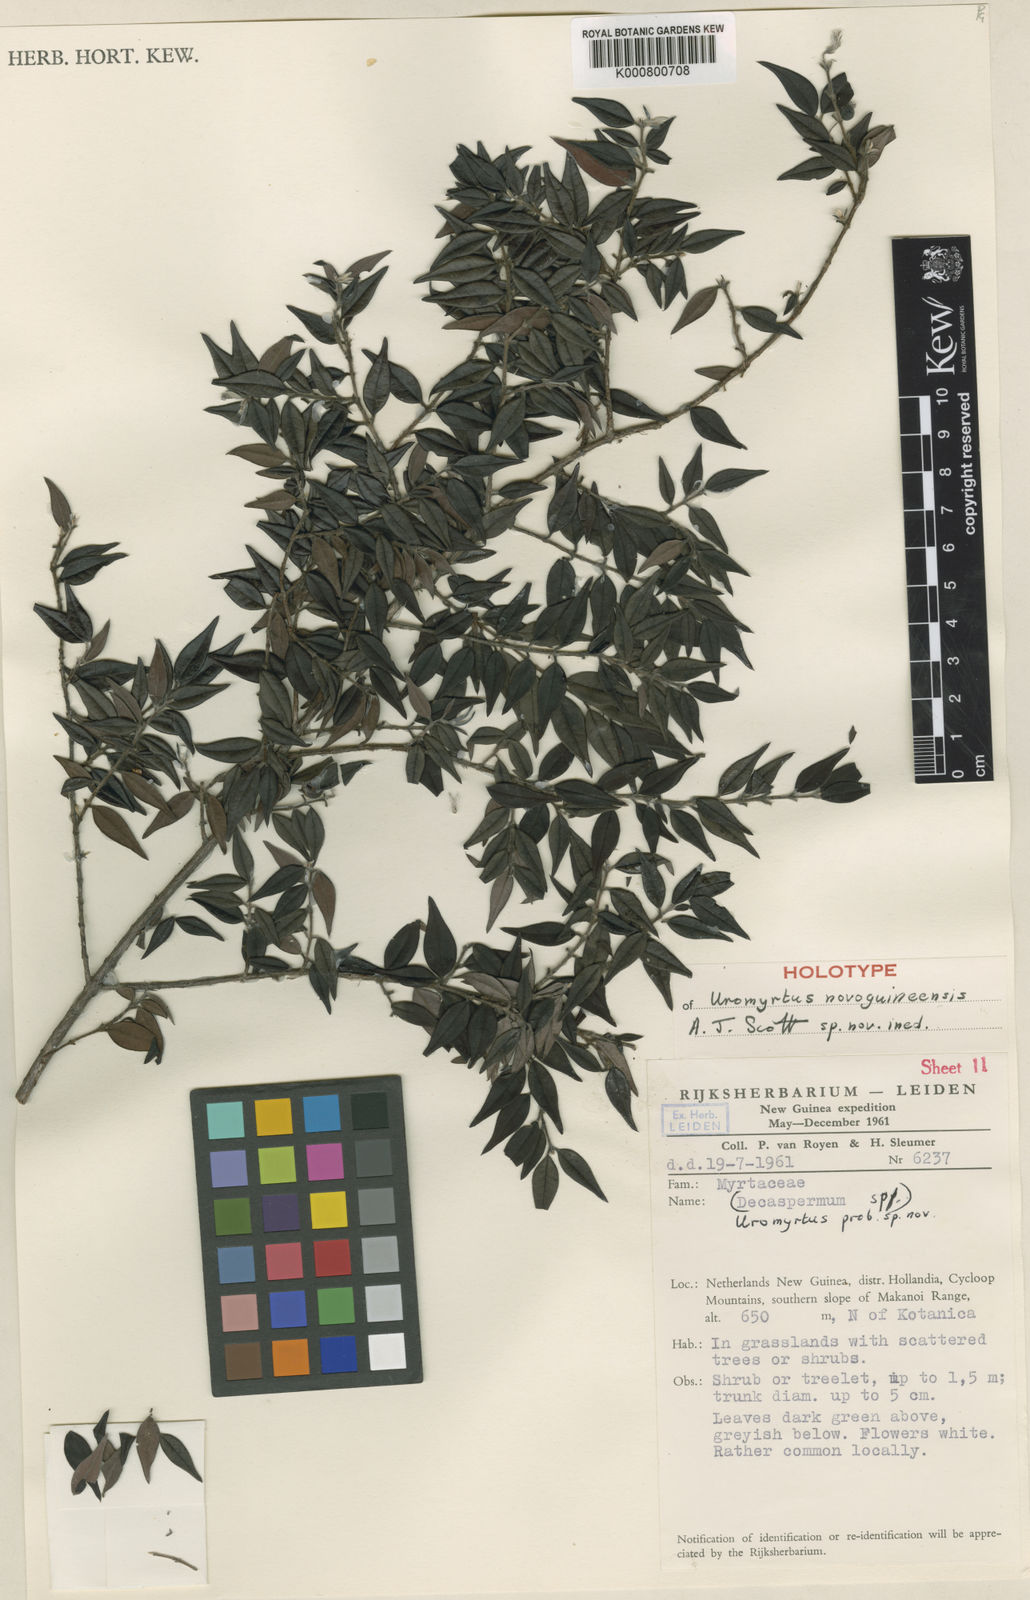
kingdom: Plantae
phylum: Tracheophyta
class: Magnoliopsida
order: Myrtales
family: Myrtaceae
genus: Uromyrtus
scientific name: Uromyrtus novoguineensis
